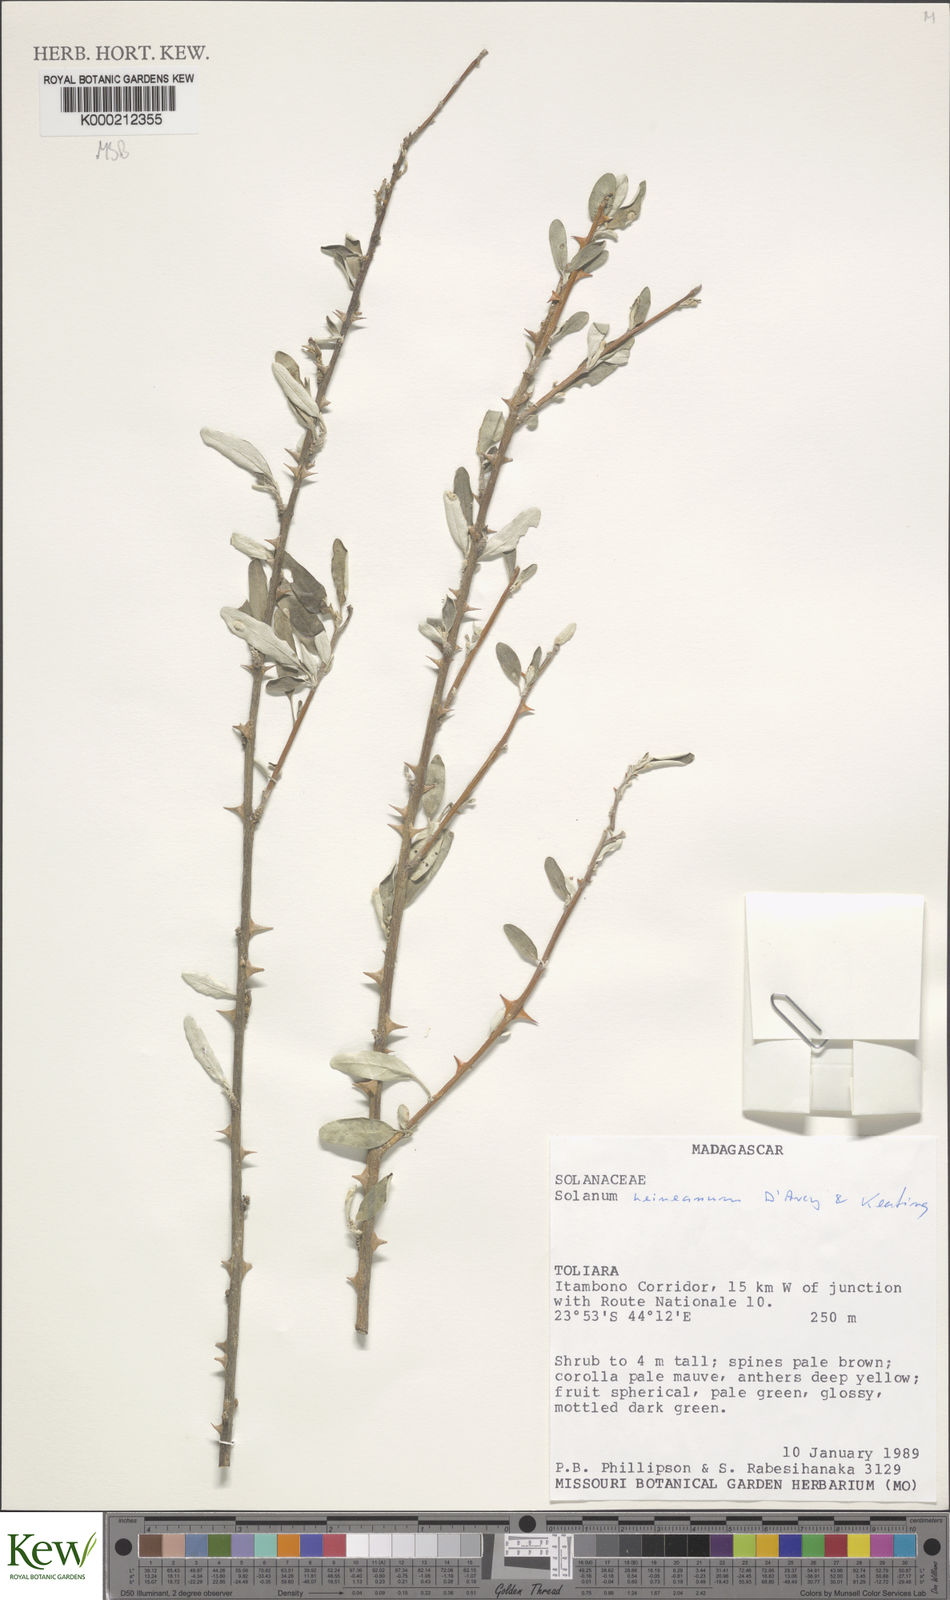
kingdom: Plantae
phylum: Tracheophyta
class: Magnoliopsida
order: Solanales
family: Solanaceae
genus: Solanum
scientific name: Solanum heinianum
